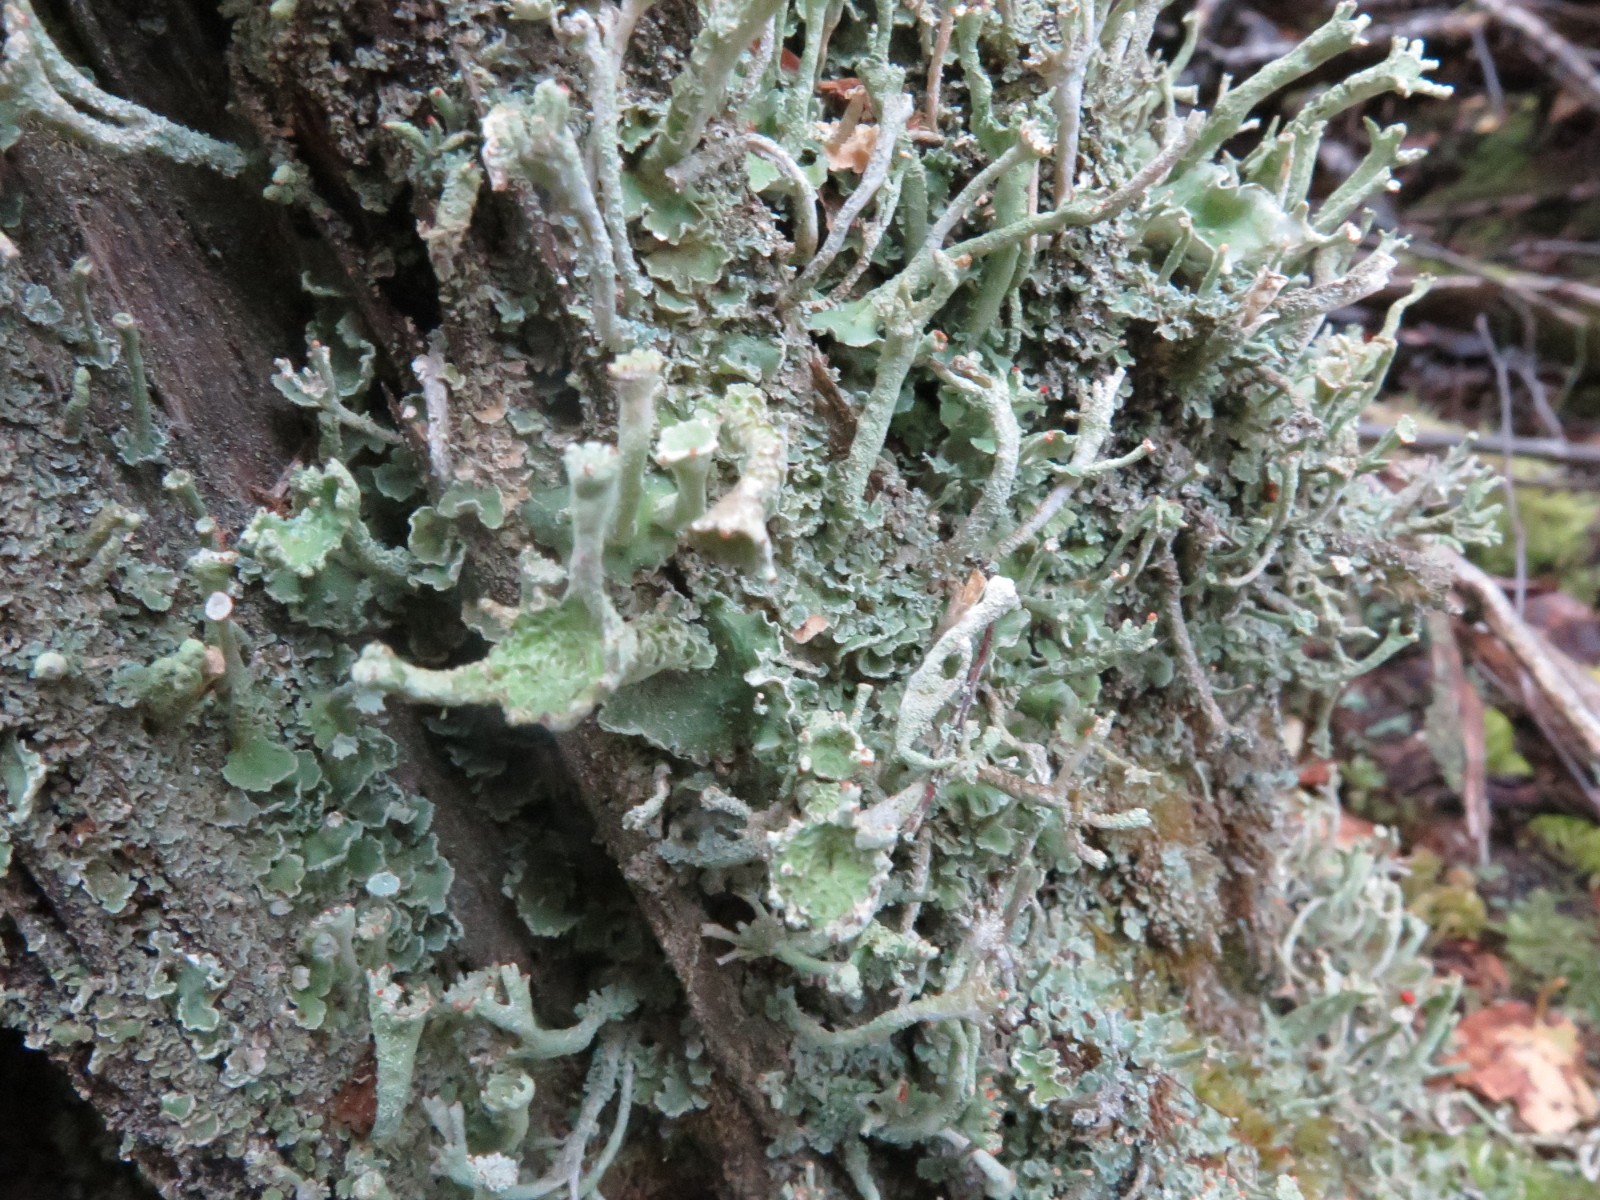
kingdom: Fungi
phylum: Ascomycota
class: Lecanoromycetes
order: Lecanorales
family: Cladoniaceae
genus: Cladonia
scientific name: Cladonia digitata
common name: finger-bægerlav
